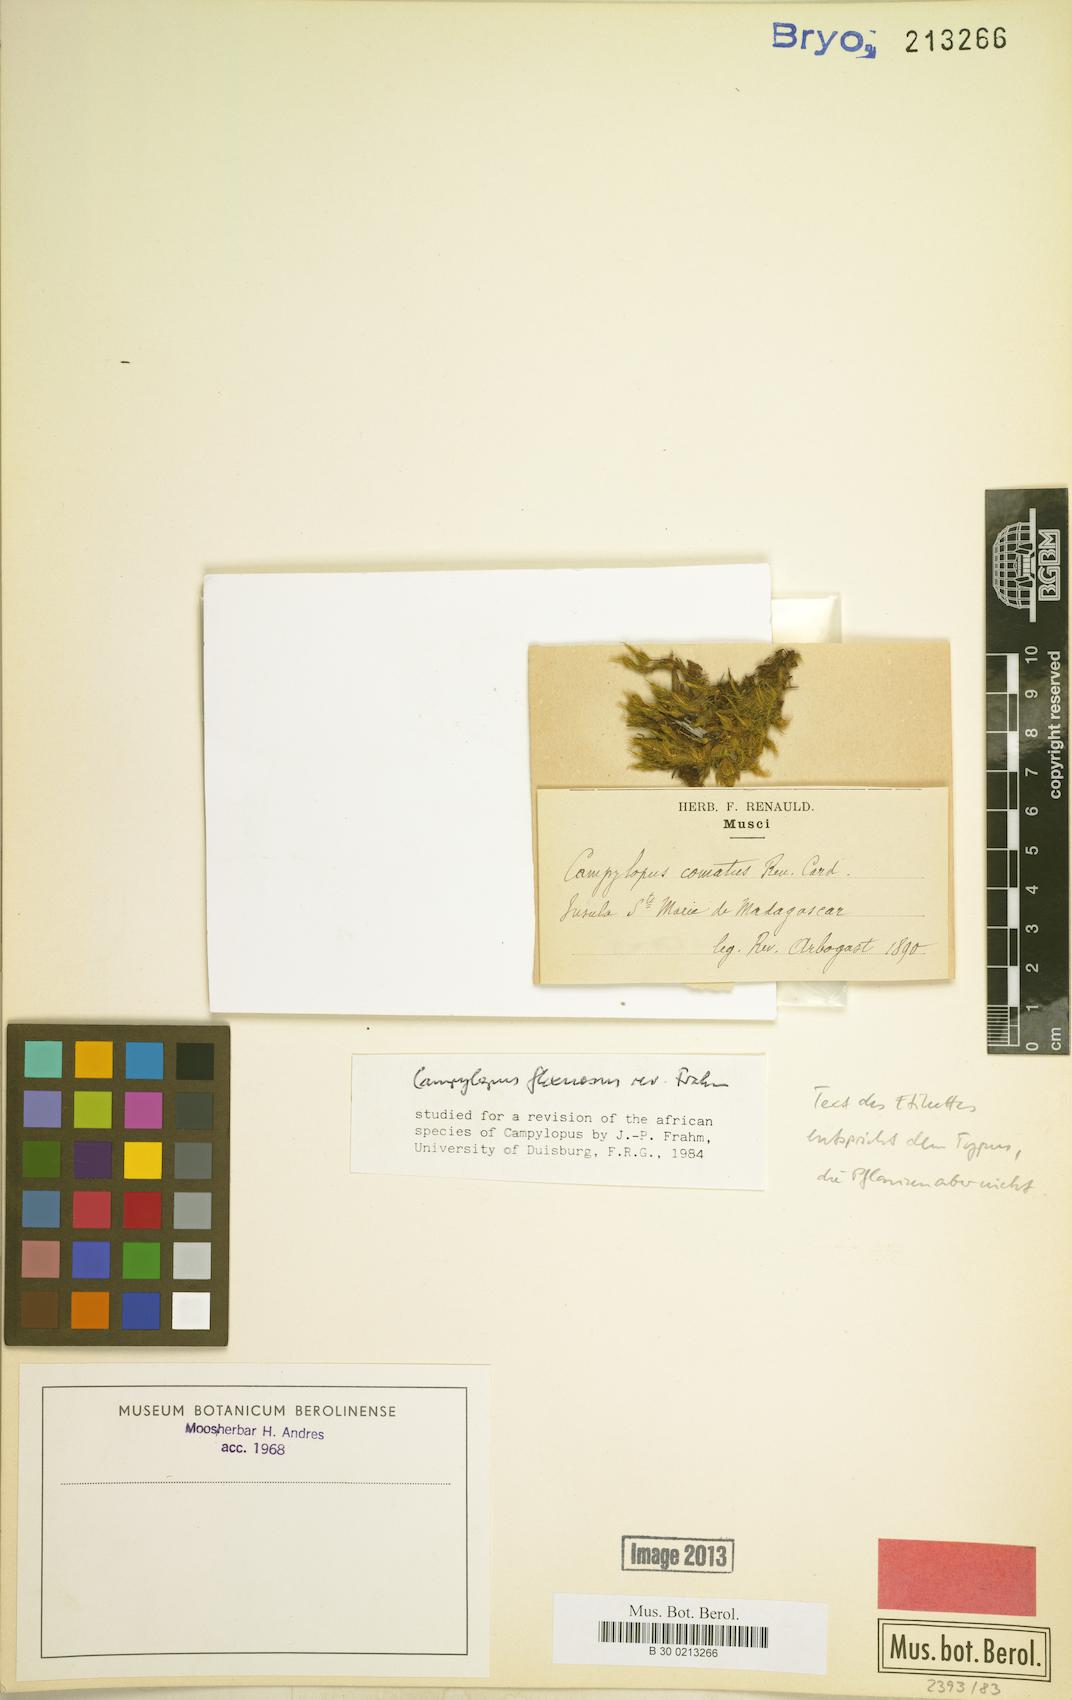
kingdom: Plantae
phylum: Bryophyta
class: Bryopsida
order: Dicranales
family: Leucobryaceae
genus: Campylopus
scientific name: Campylopus flexuosus
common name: Rusty swan-neck moss
